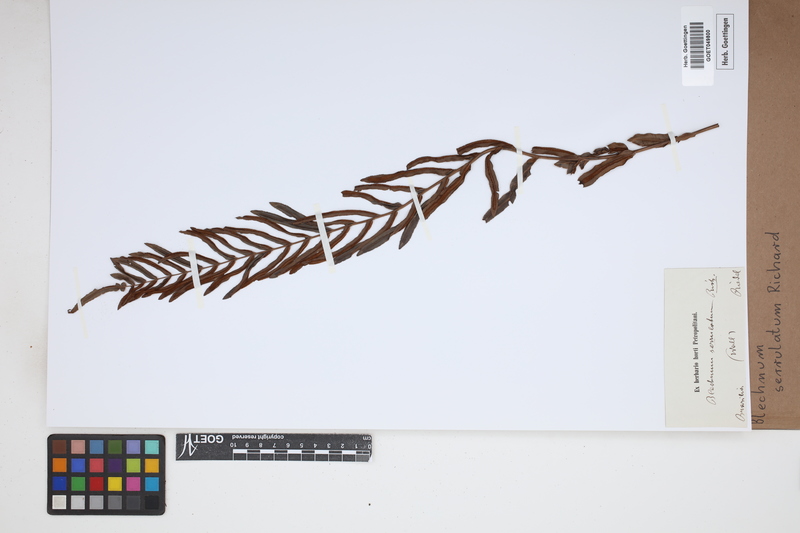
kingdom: Plantae
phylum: Tracheophyta
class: Polypodiopsida
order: Polypodiales
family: Blechnaceae
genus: Telmatoblechnum
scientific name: Telmatoblechnum serrulatum
